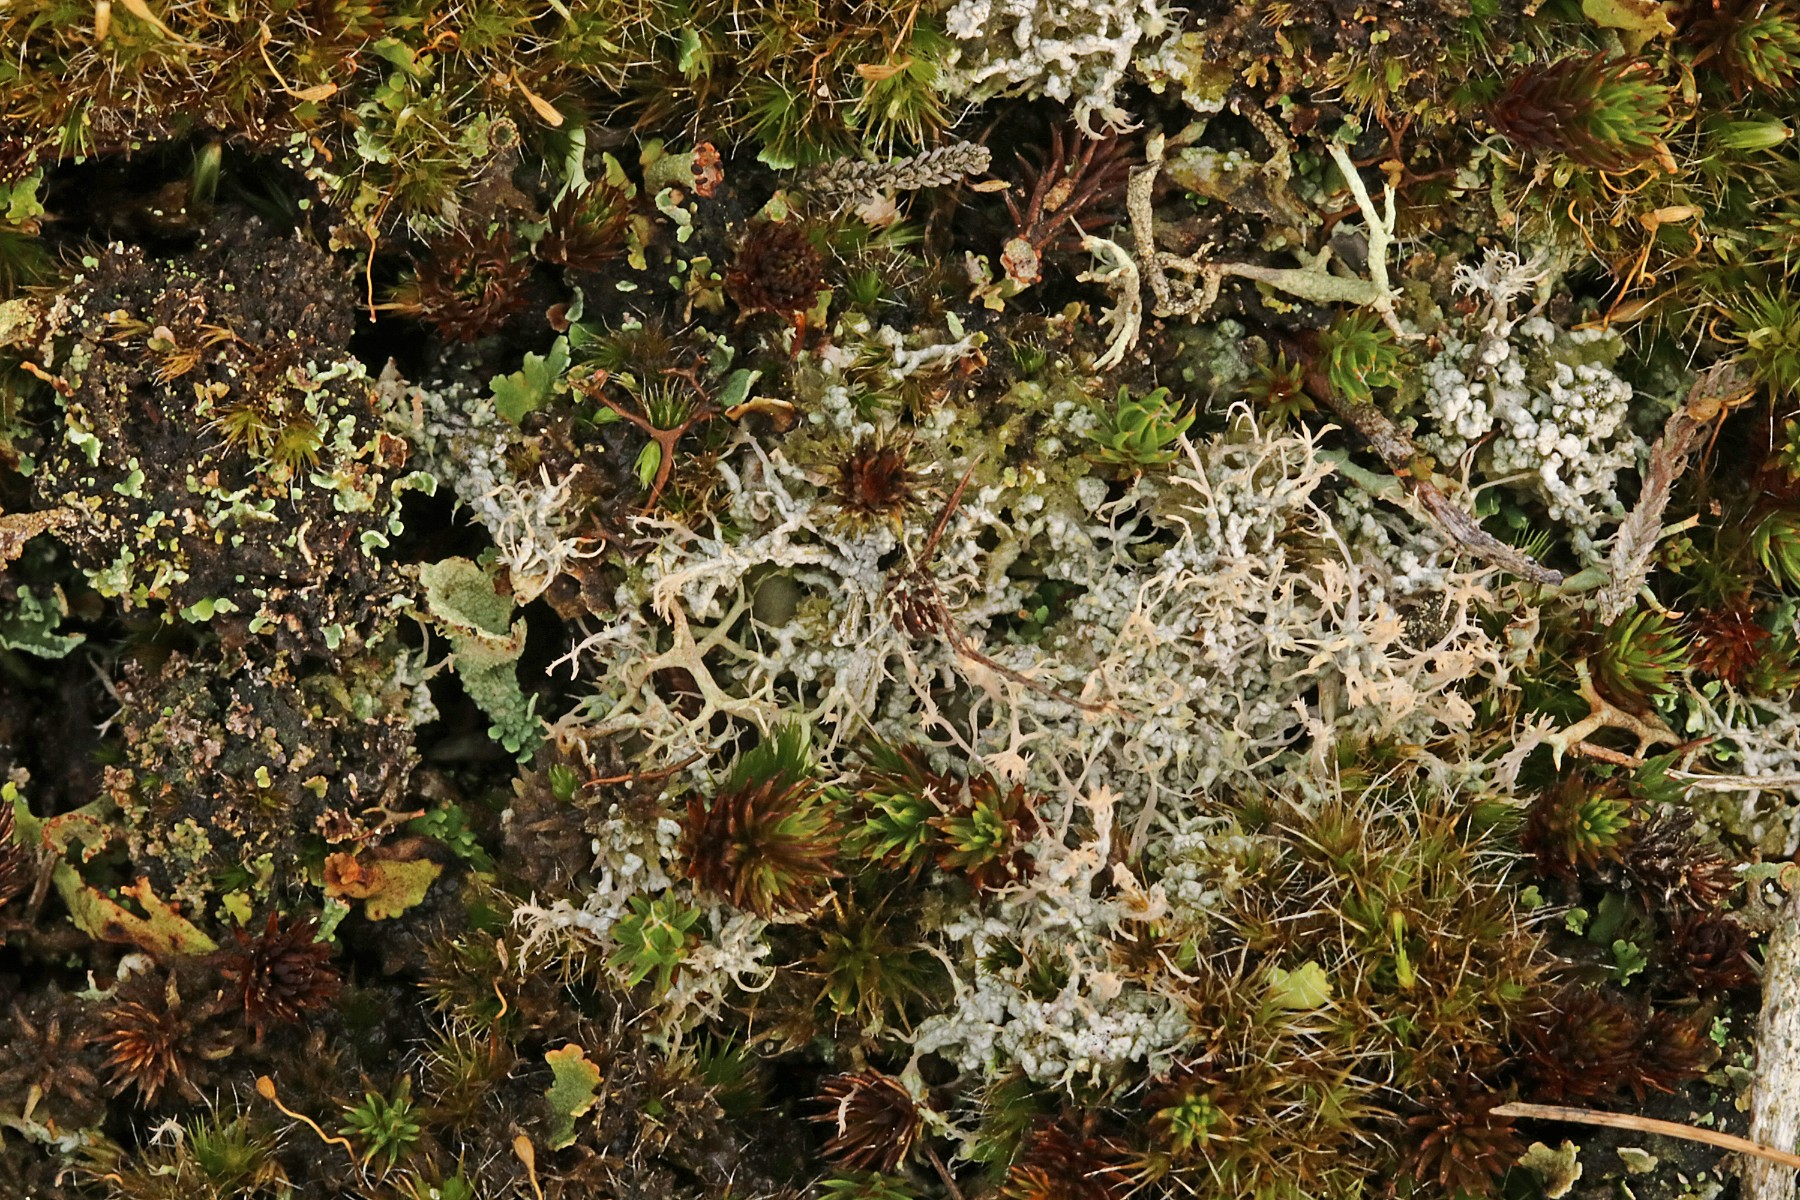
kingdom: Fungi
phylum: Ascomycota
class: Lecanoromycetes
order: Pertusariales
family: Ochrolechiaceae
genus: Ochrolechia
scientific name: Ochrolechia frigida
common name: fjeld-blegskivelav
